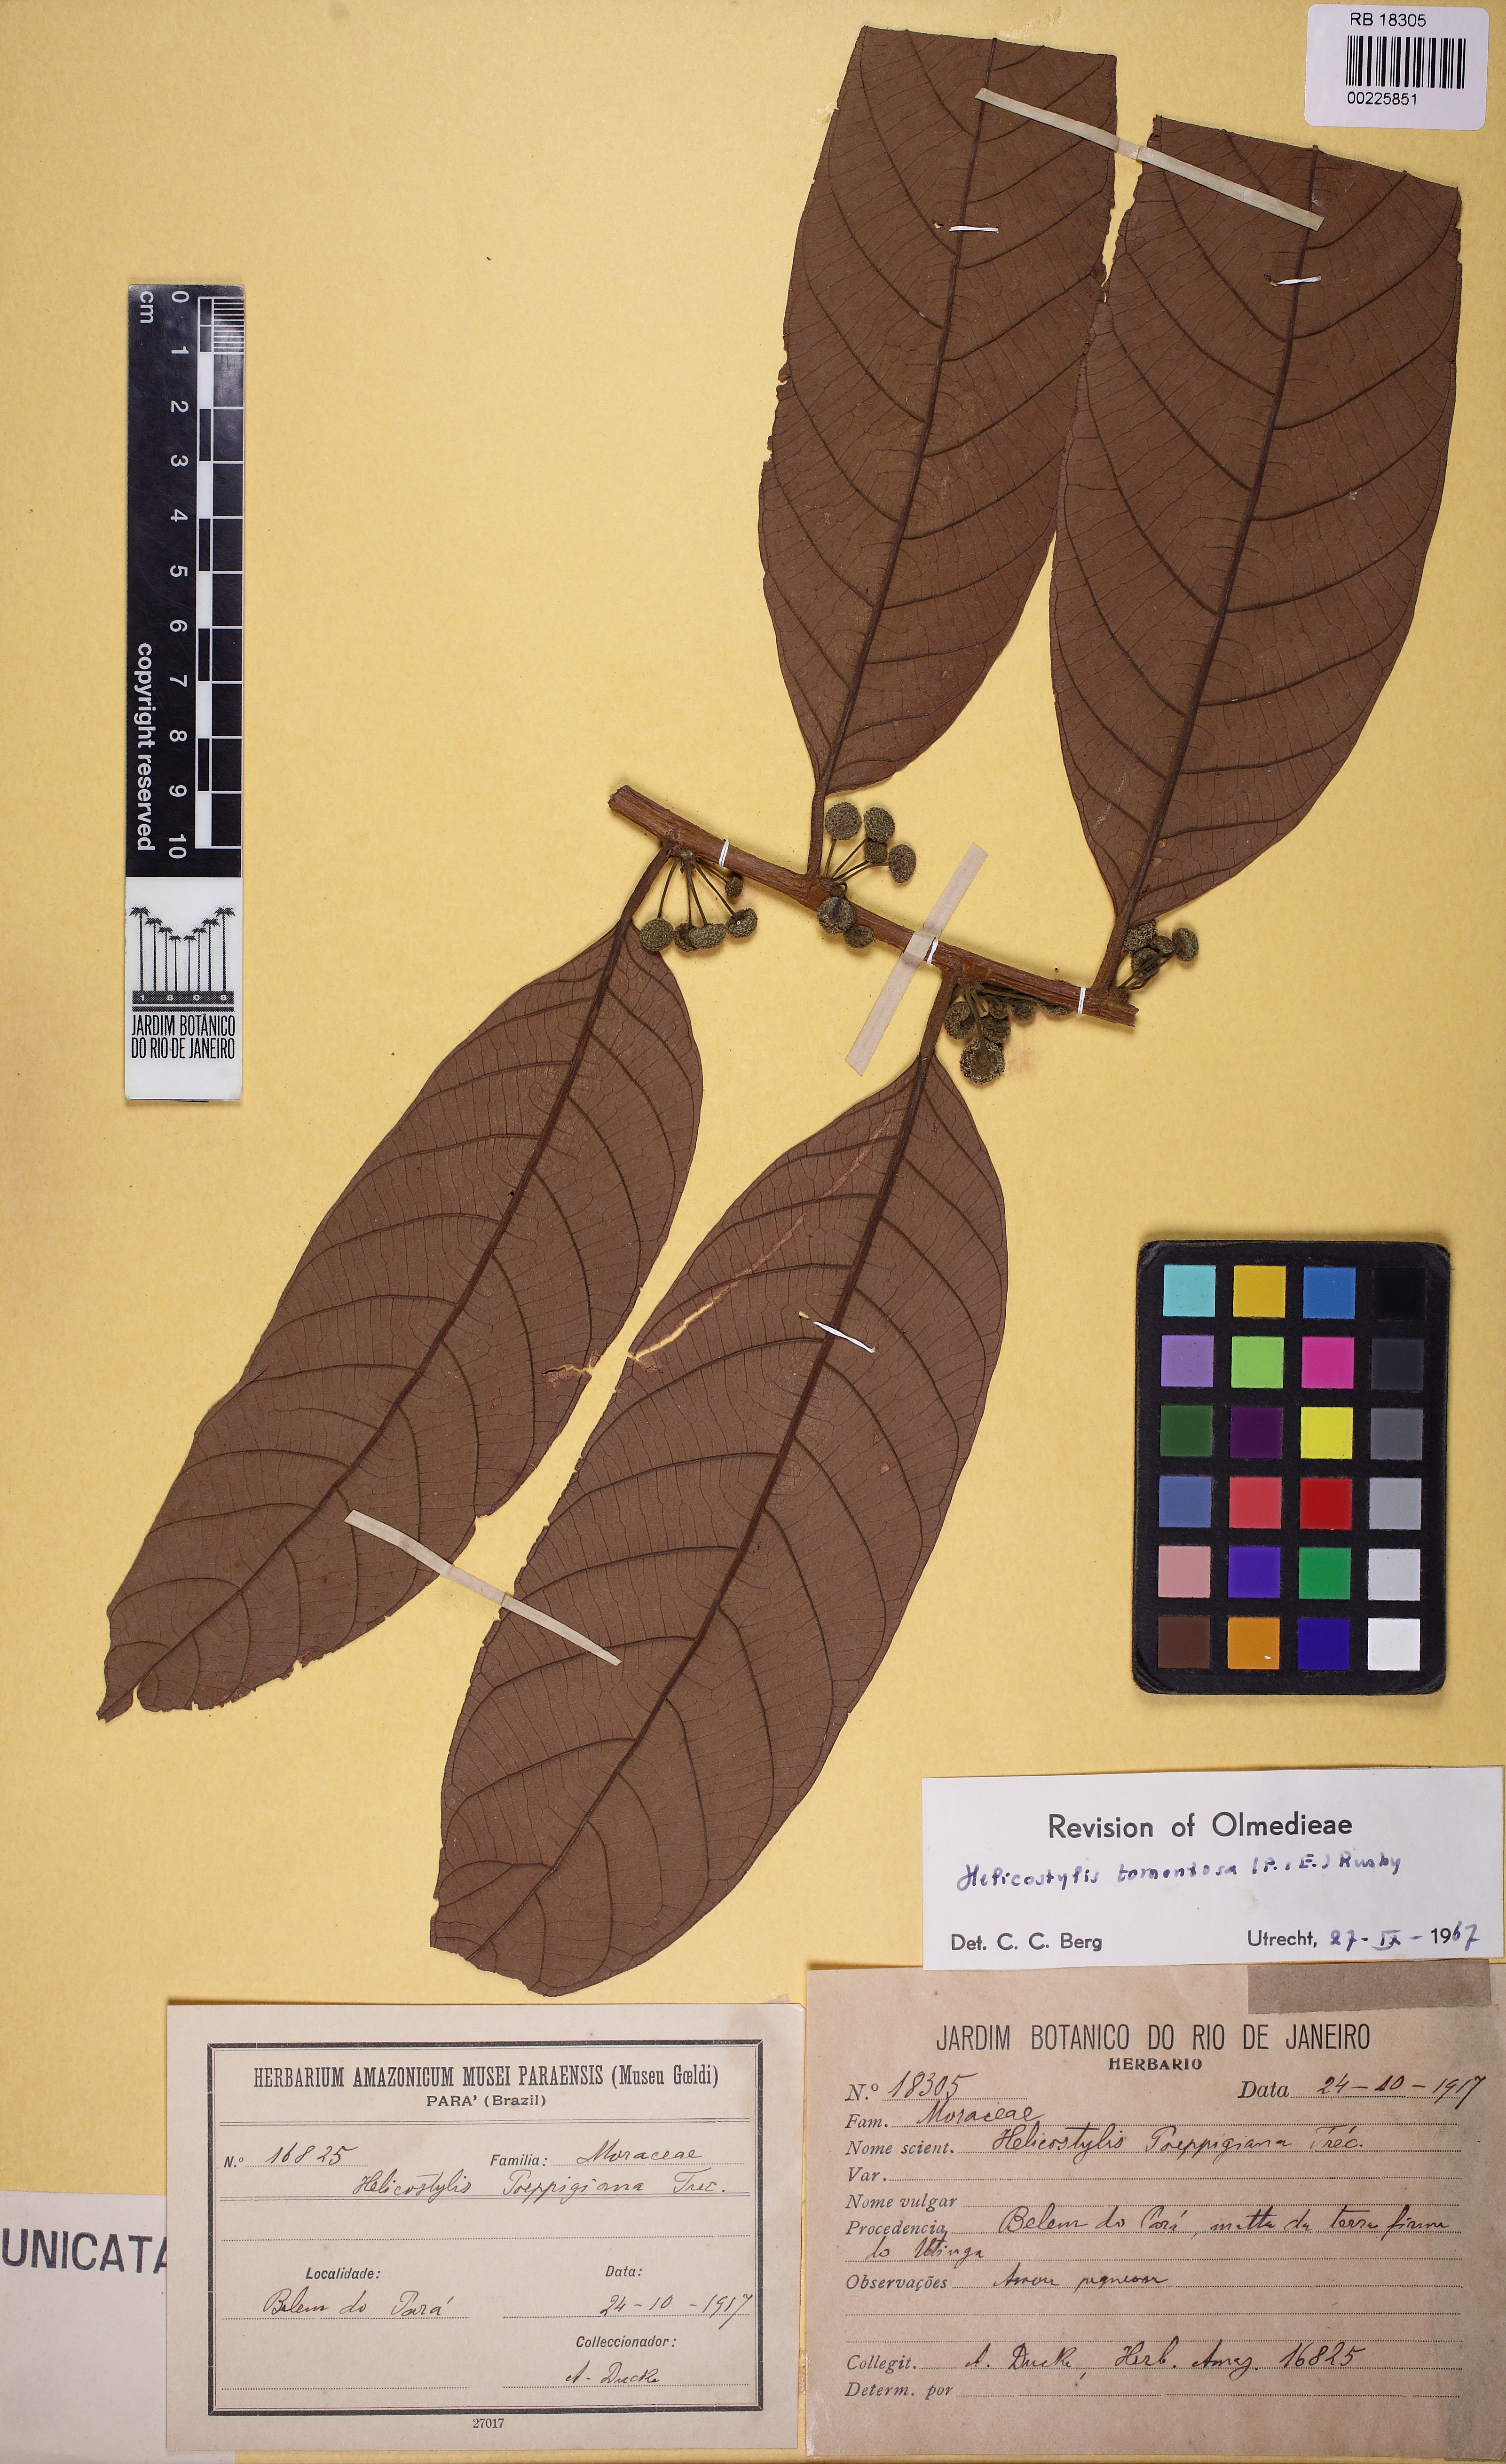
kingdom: Plantae
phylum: Tracheophyta
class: Magnoliopsida
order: Rosales
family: Moraceae
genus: Helicostylis
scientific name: Helicostylis tomentosa
